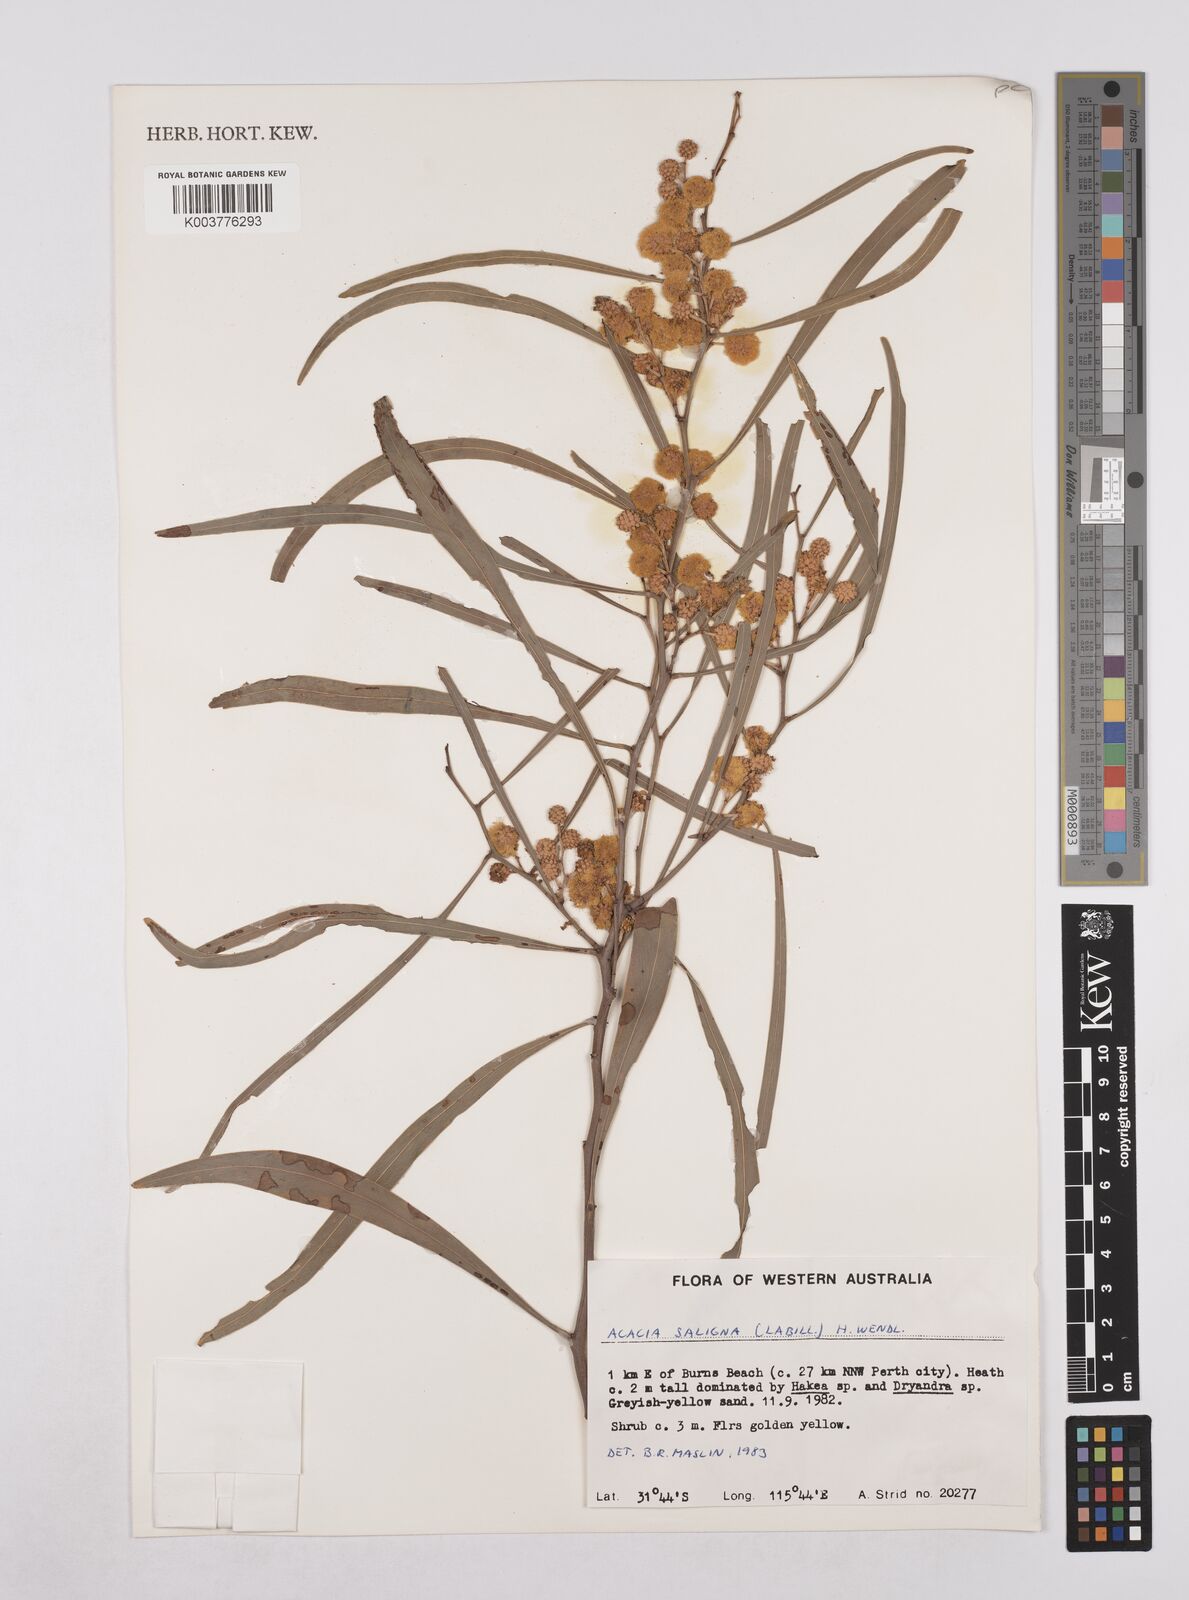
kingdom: Plantae
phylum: Tracheophyta
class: Magnoliopsida
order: Fabales
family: Fabaceae
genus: Acacia
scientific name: Acacia saligna
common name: Orange wattle
